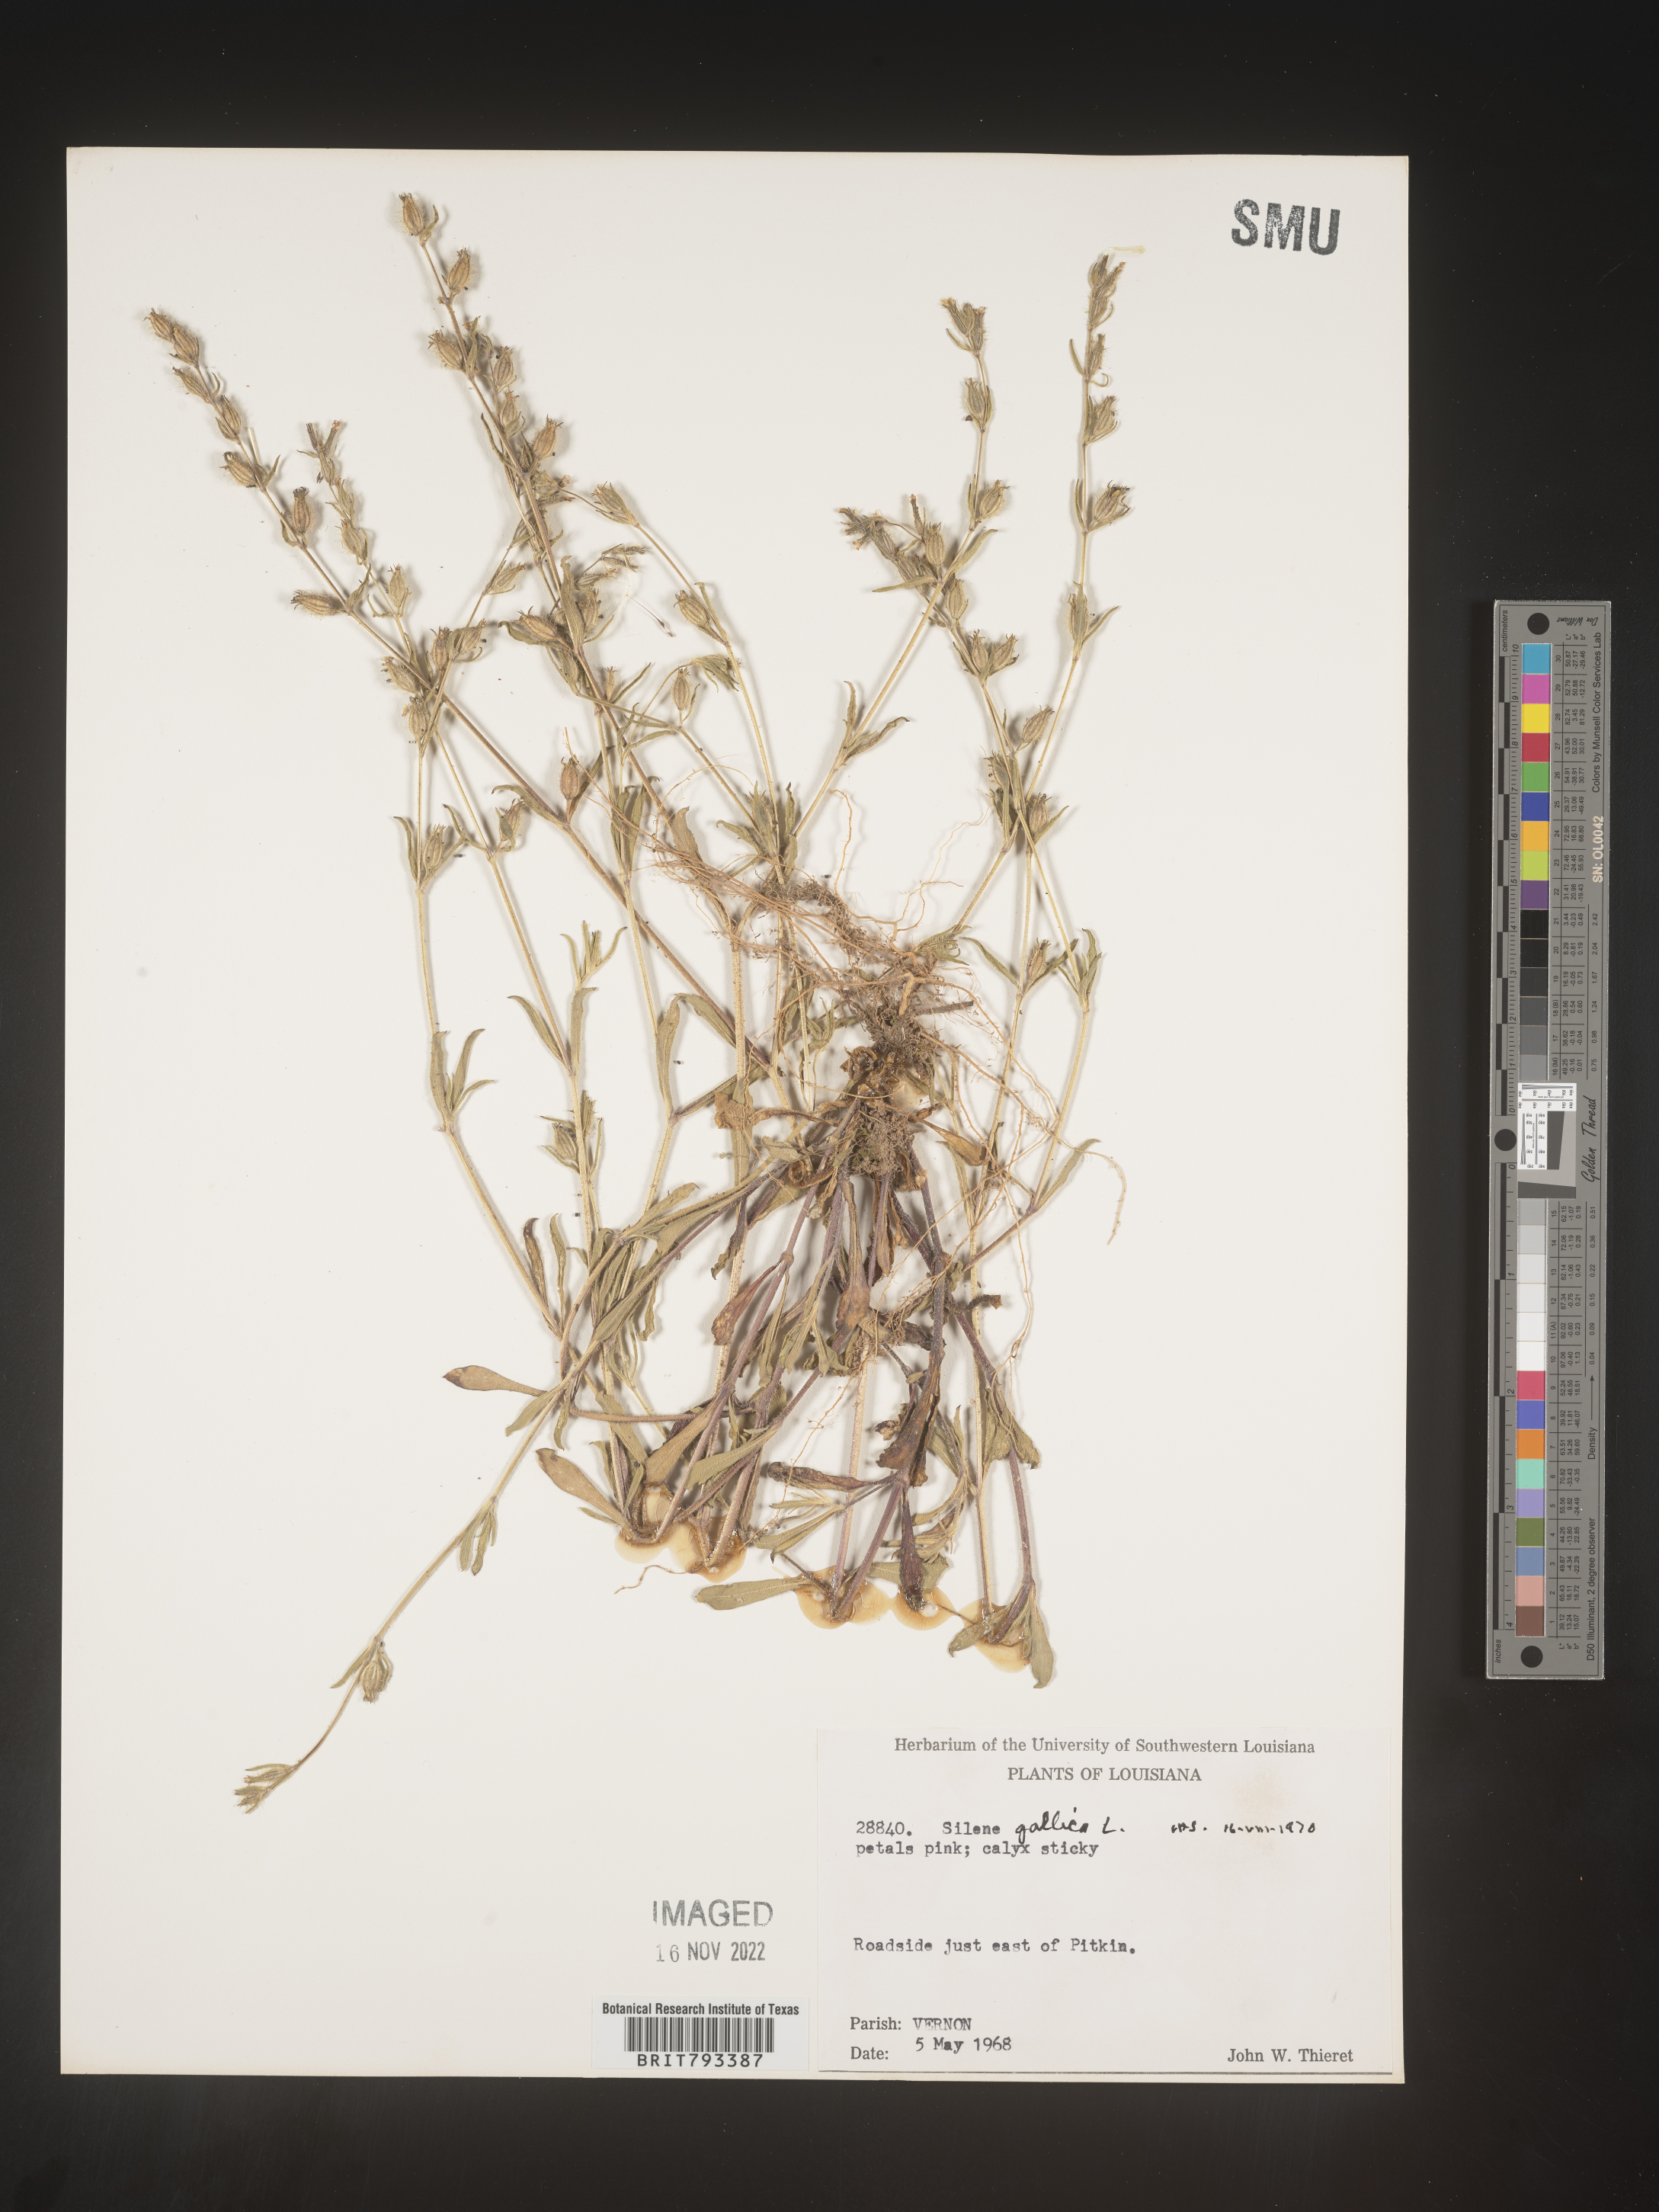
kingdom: Plantae
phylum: Tracheophyta
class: Magnoliopsida
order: Caryophyllales
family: Caryophyllaceae
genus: Silene
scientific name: Silene gallica
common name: Small-flowered catchfly
